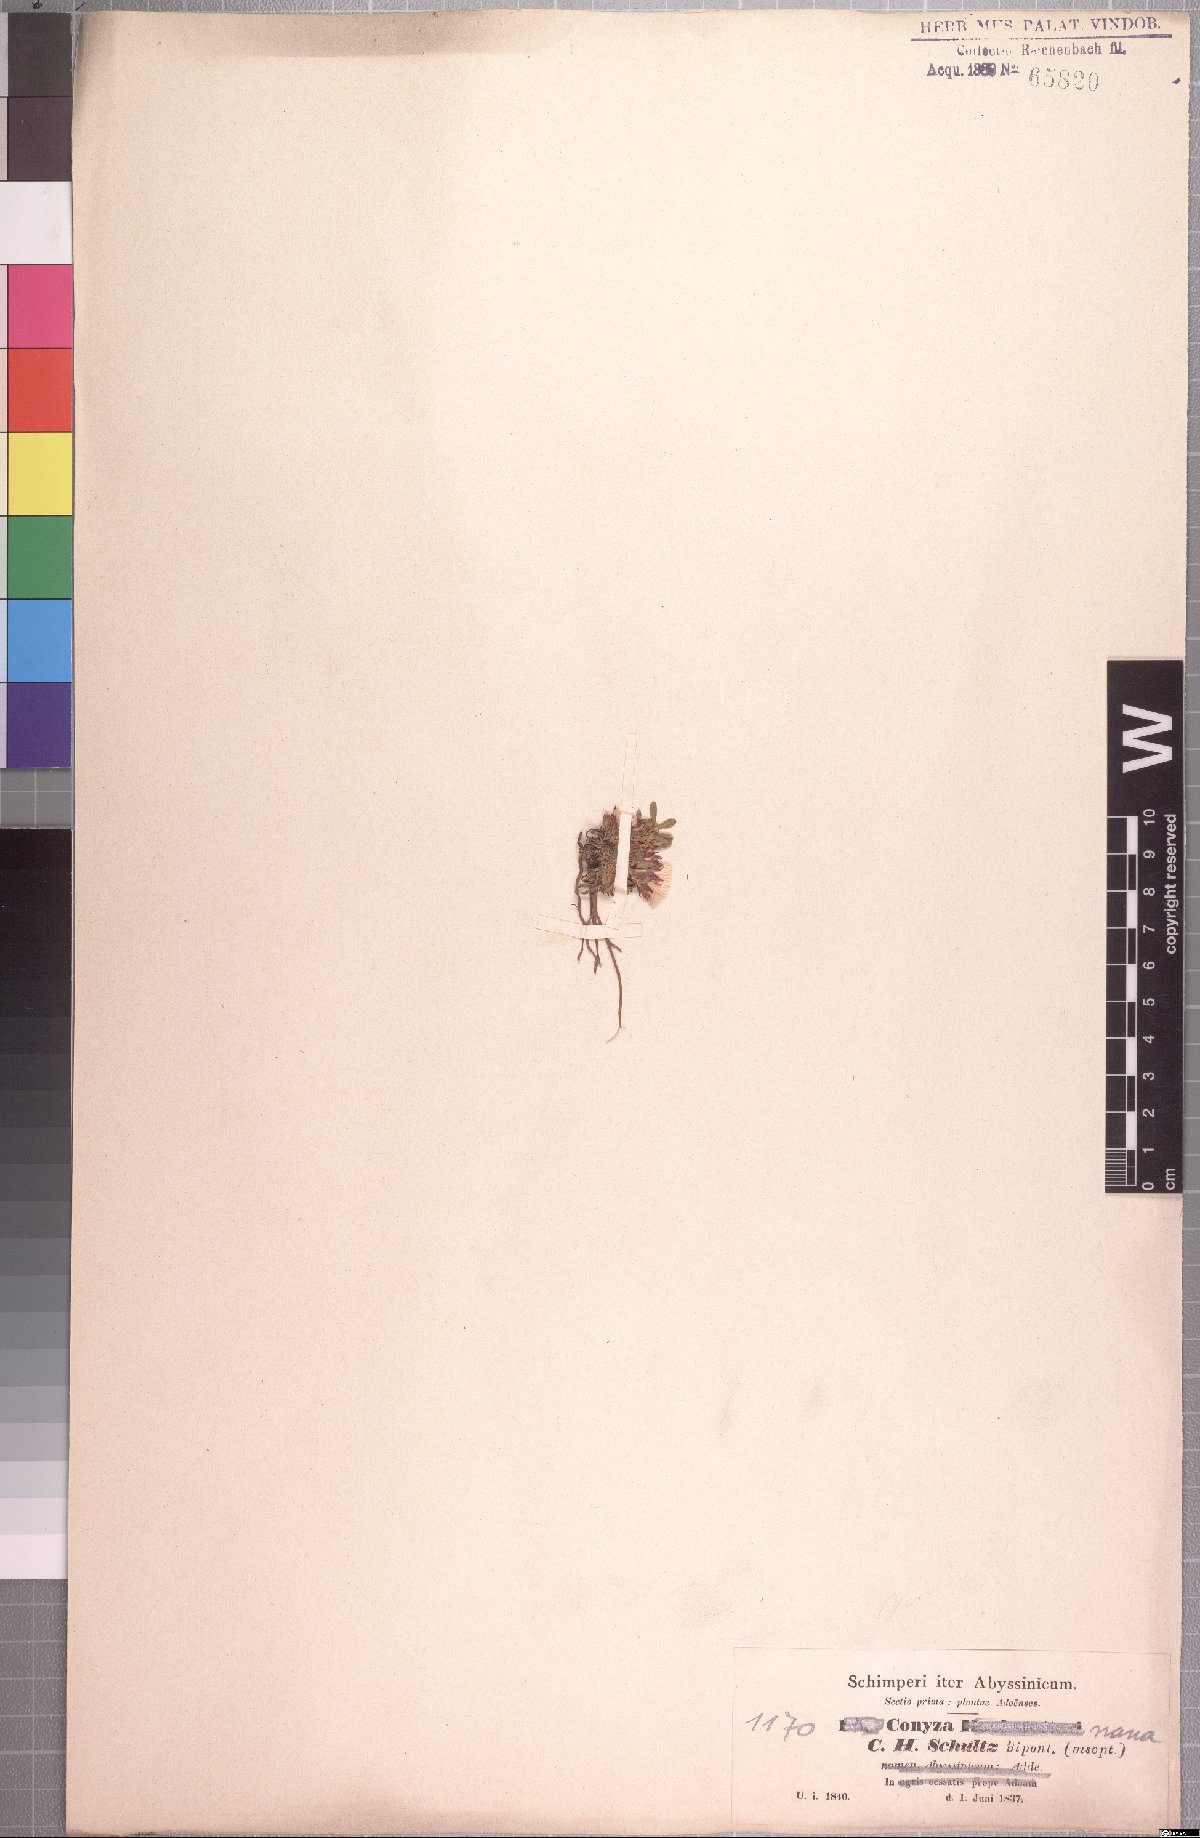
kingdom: Plantae
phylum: Tracheophyta
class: Magnoliopsida
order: Asterales
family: Asteraceae
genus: Conyza
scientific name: Conyza nana
